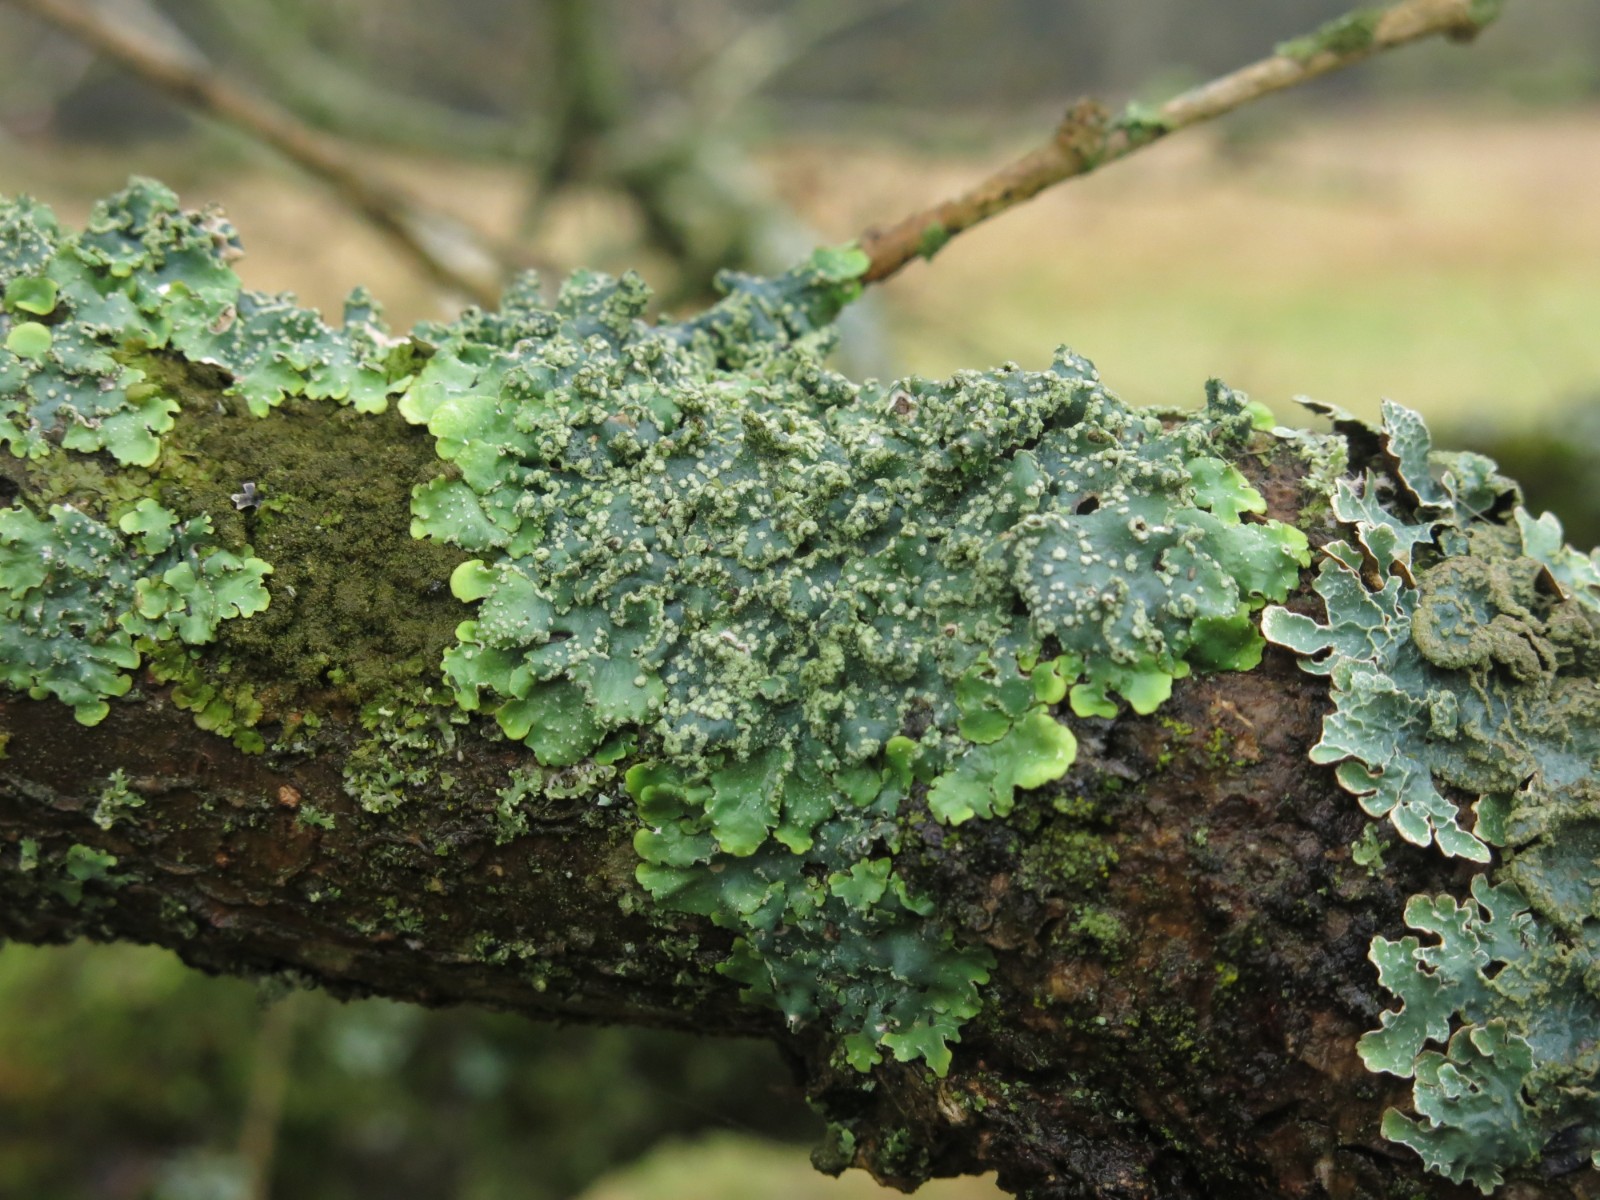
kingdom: Fungi
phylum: Ascomycota
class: Lecanoromycetes
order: Lecanorales
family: Parmeliaceae
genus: Punctelia
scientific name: Punctelia subrudecta
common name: punkt-skållav
